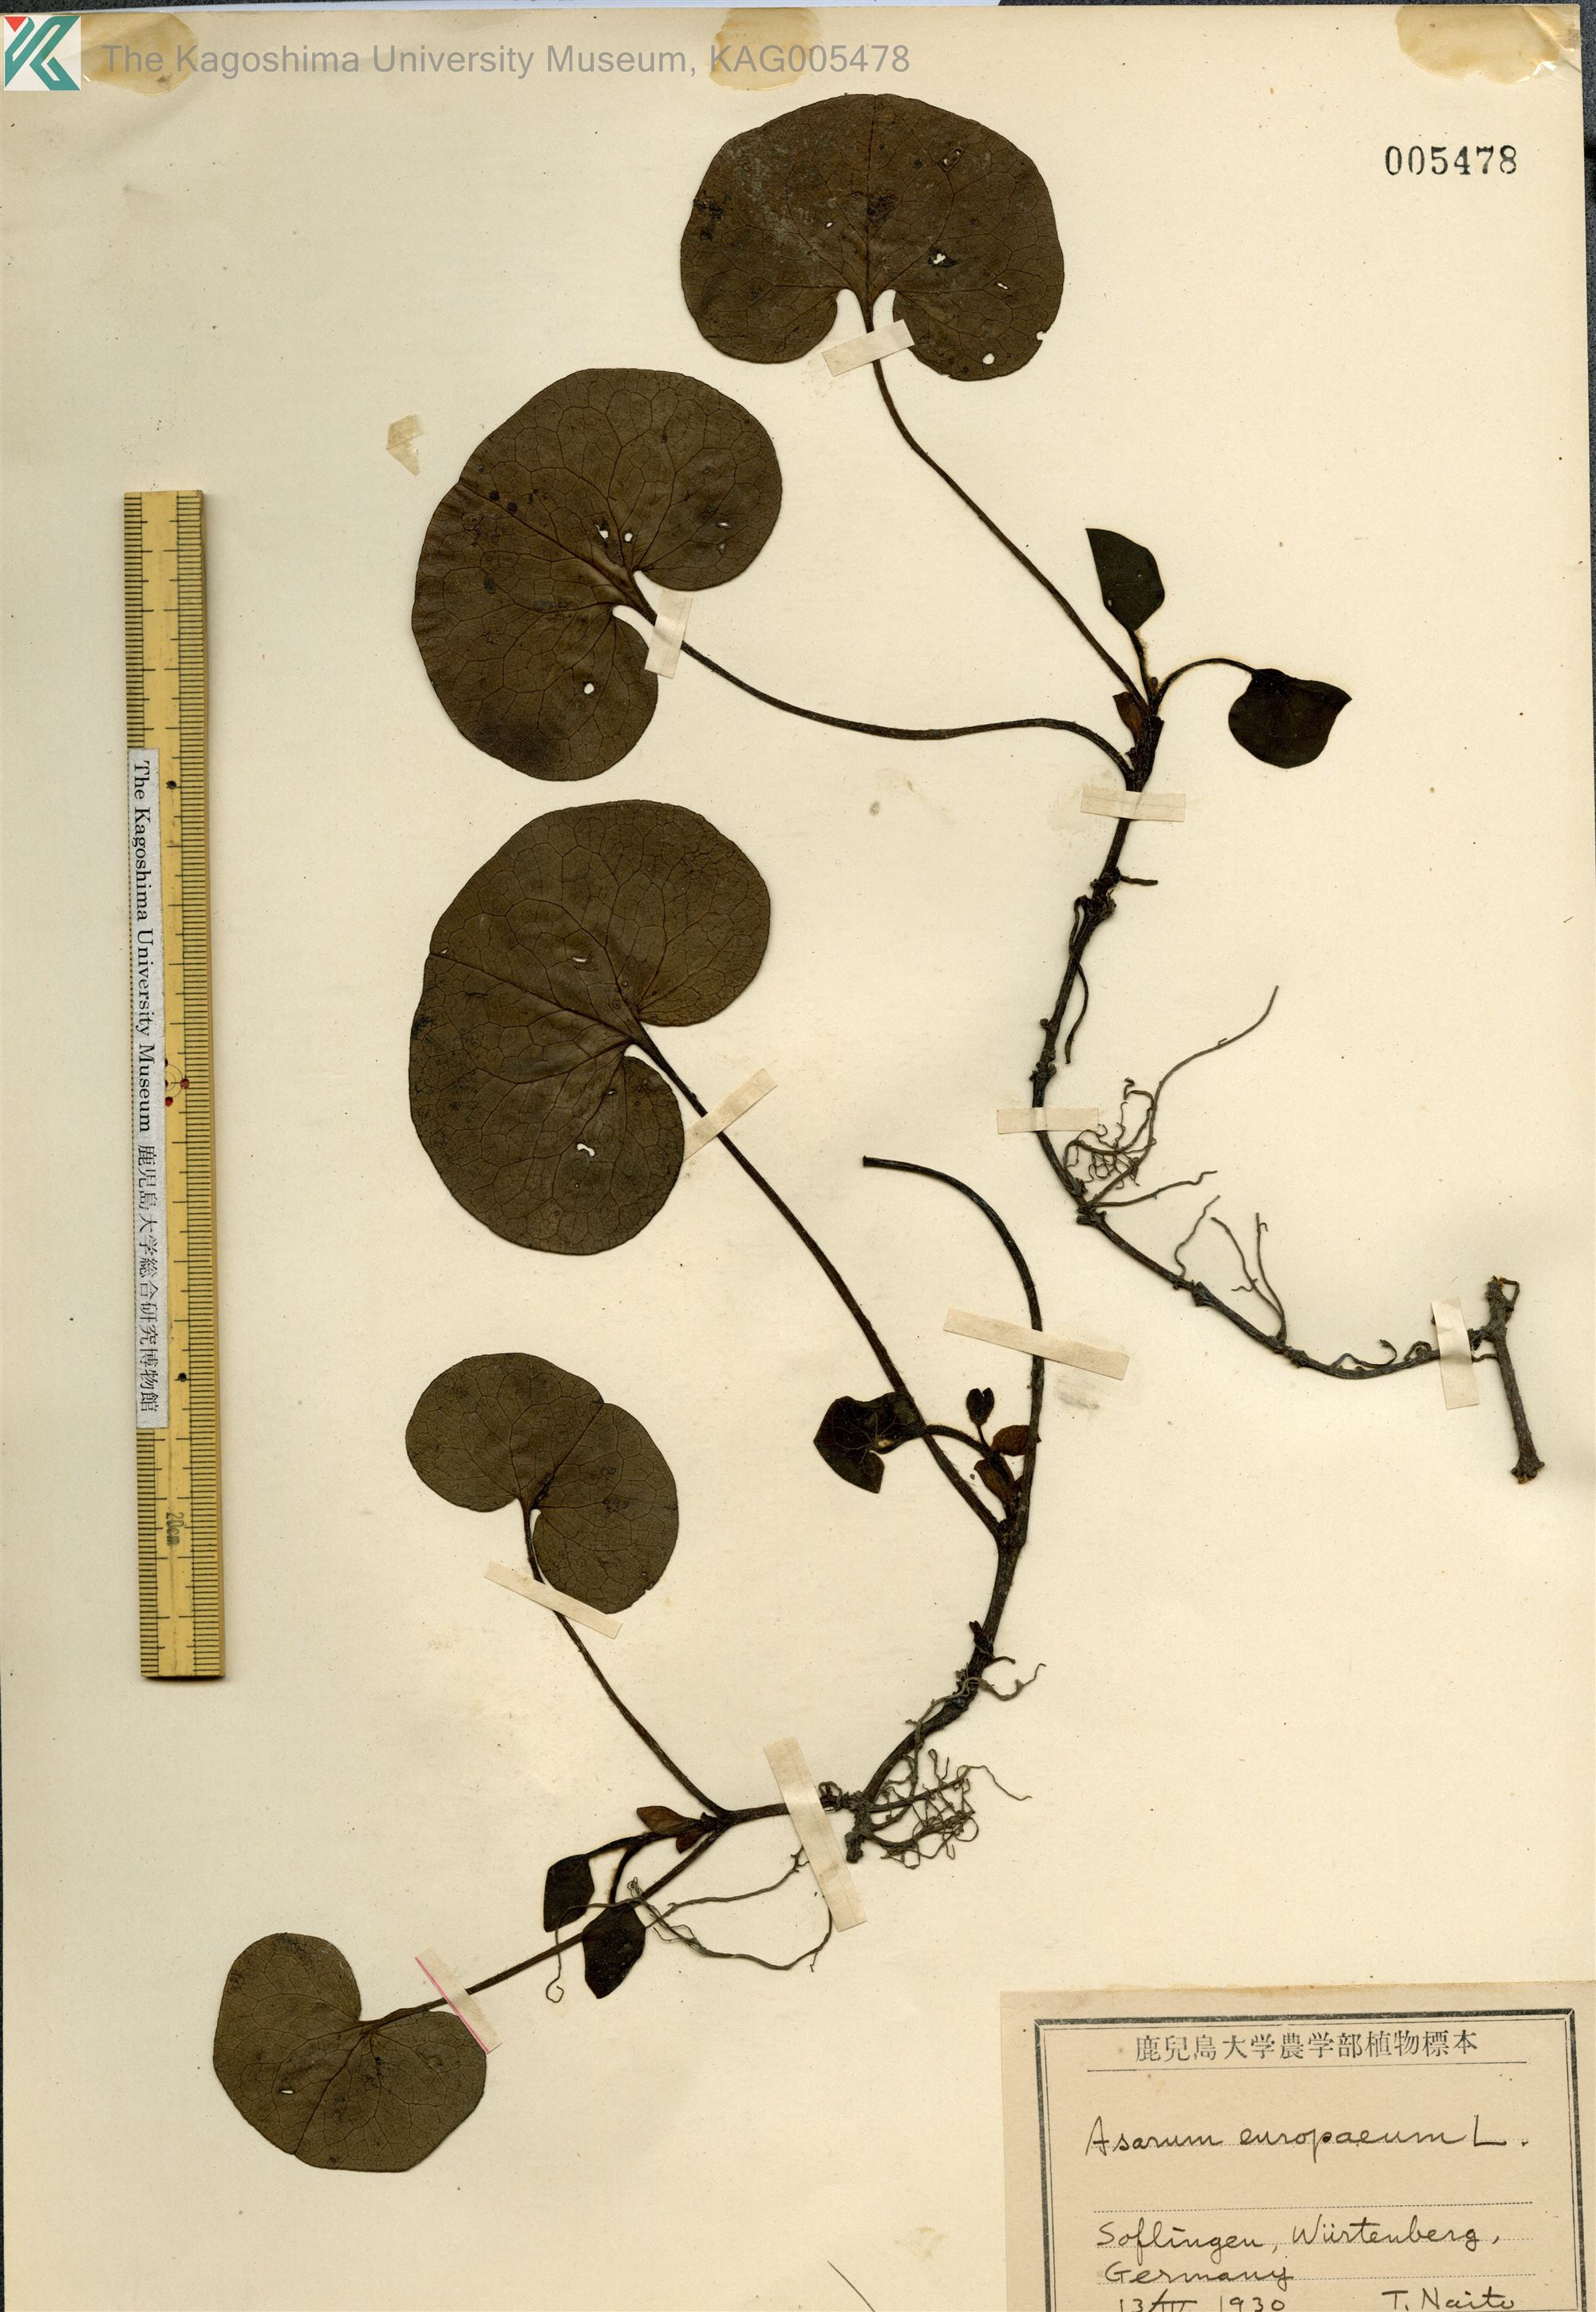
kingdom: Plantae
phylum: Tracheophyta
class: Magnoliopsida
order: Piperales
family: Aristolochiaceae
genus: Asarum
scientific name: Asarum europaeum
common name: Asarabacca
